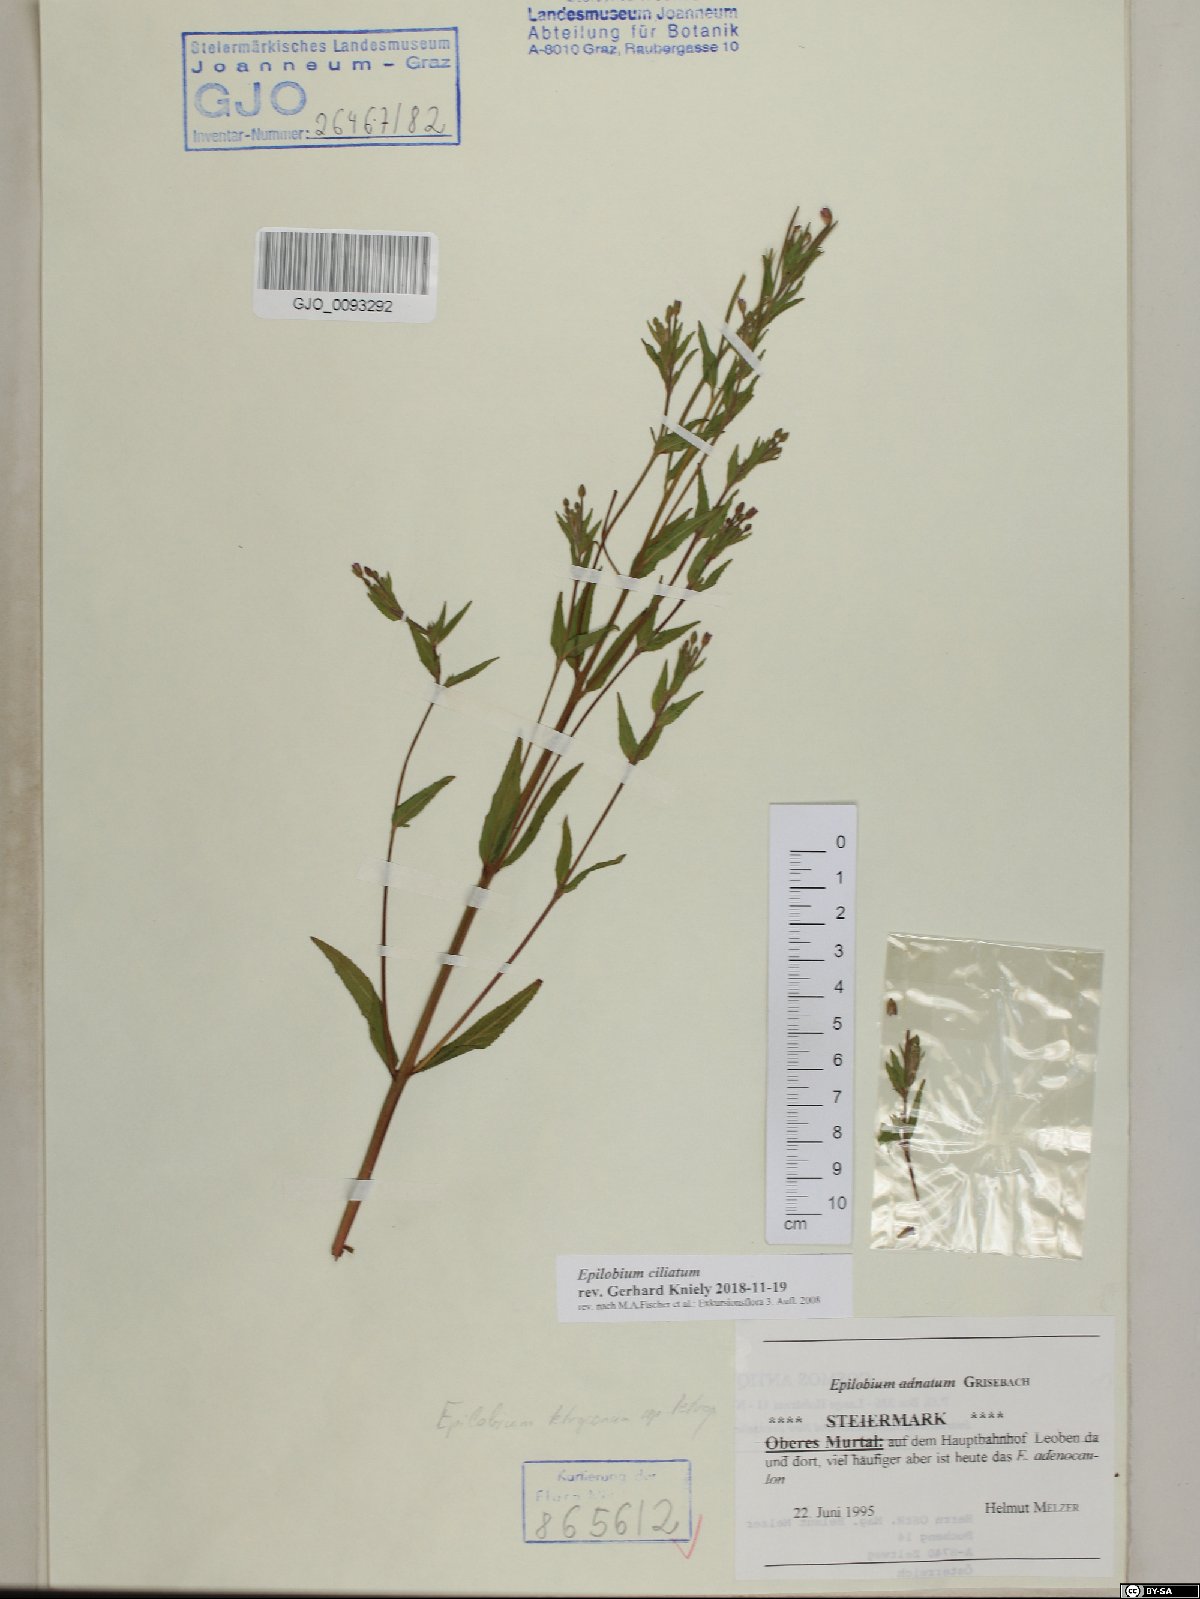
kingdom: Plantae
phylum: Tracheophyta
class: Magnoliopsida
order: Myrtales
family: Onagraceae
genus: Epilobium
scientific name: Epilobium ciliatum
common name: American willowherb
